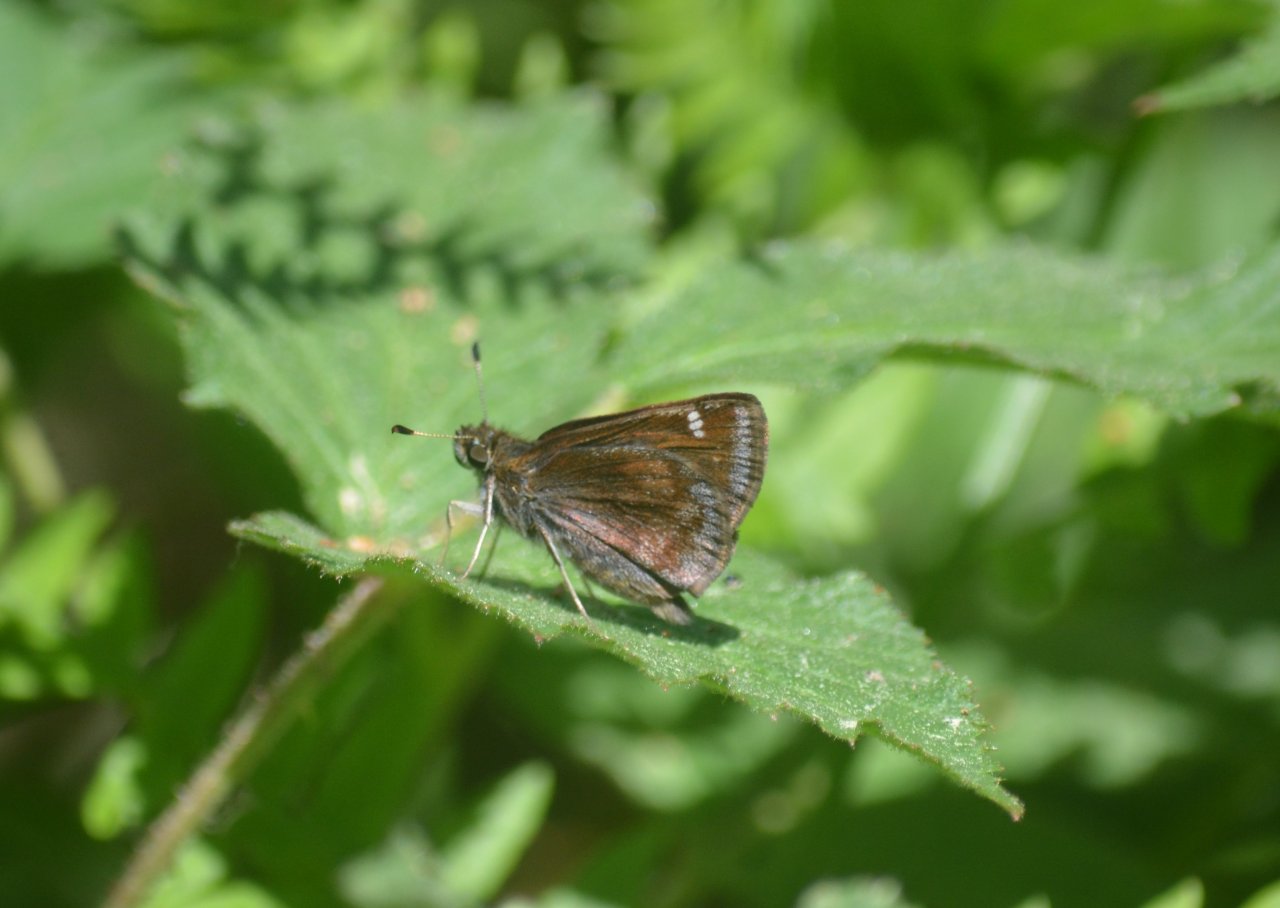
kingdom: Animalia
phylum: Arthropoda
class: Insecta
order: Lepidoptera
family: Hesperiidae
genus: Lon
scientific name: Lon hobomok
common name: Hobomok Skipper
